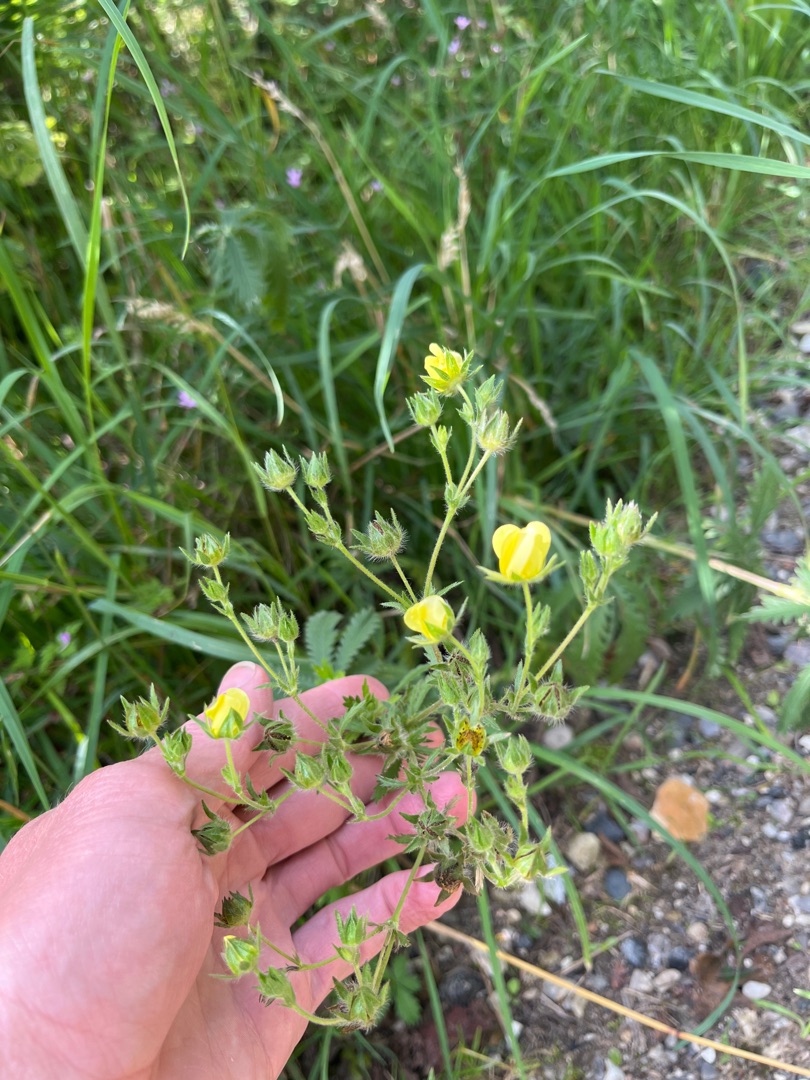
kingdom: Plantae
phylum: Tracheophyta
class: Magnoliopsida
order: Rosales
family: Rosaceae
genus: Potentilla
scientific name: Potentilla recta
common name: Rank potentil
